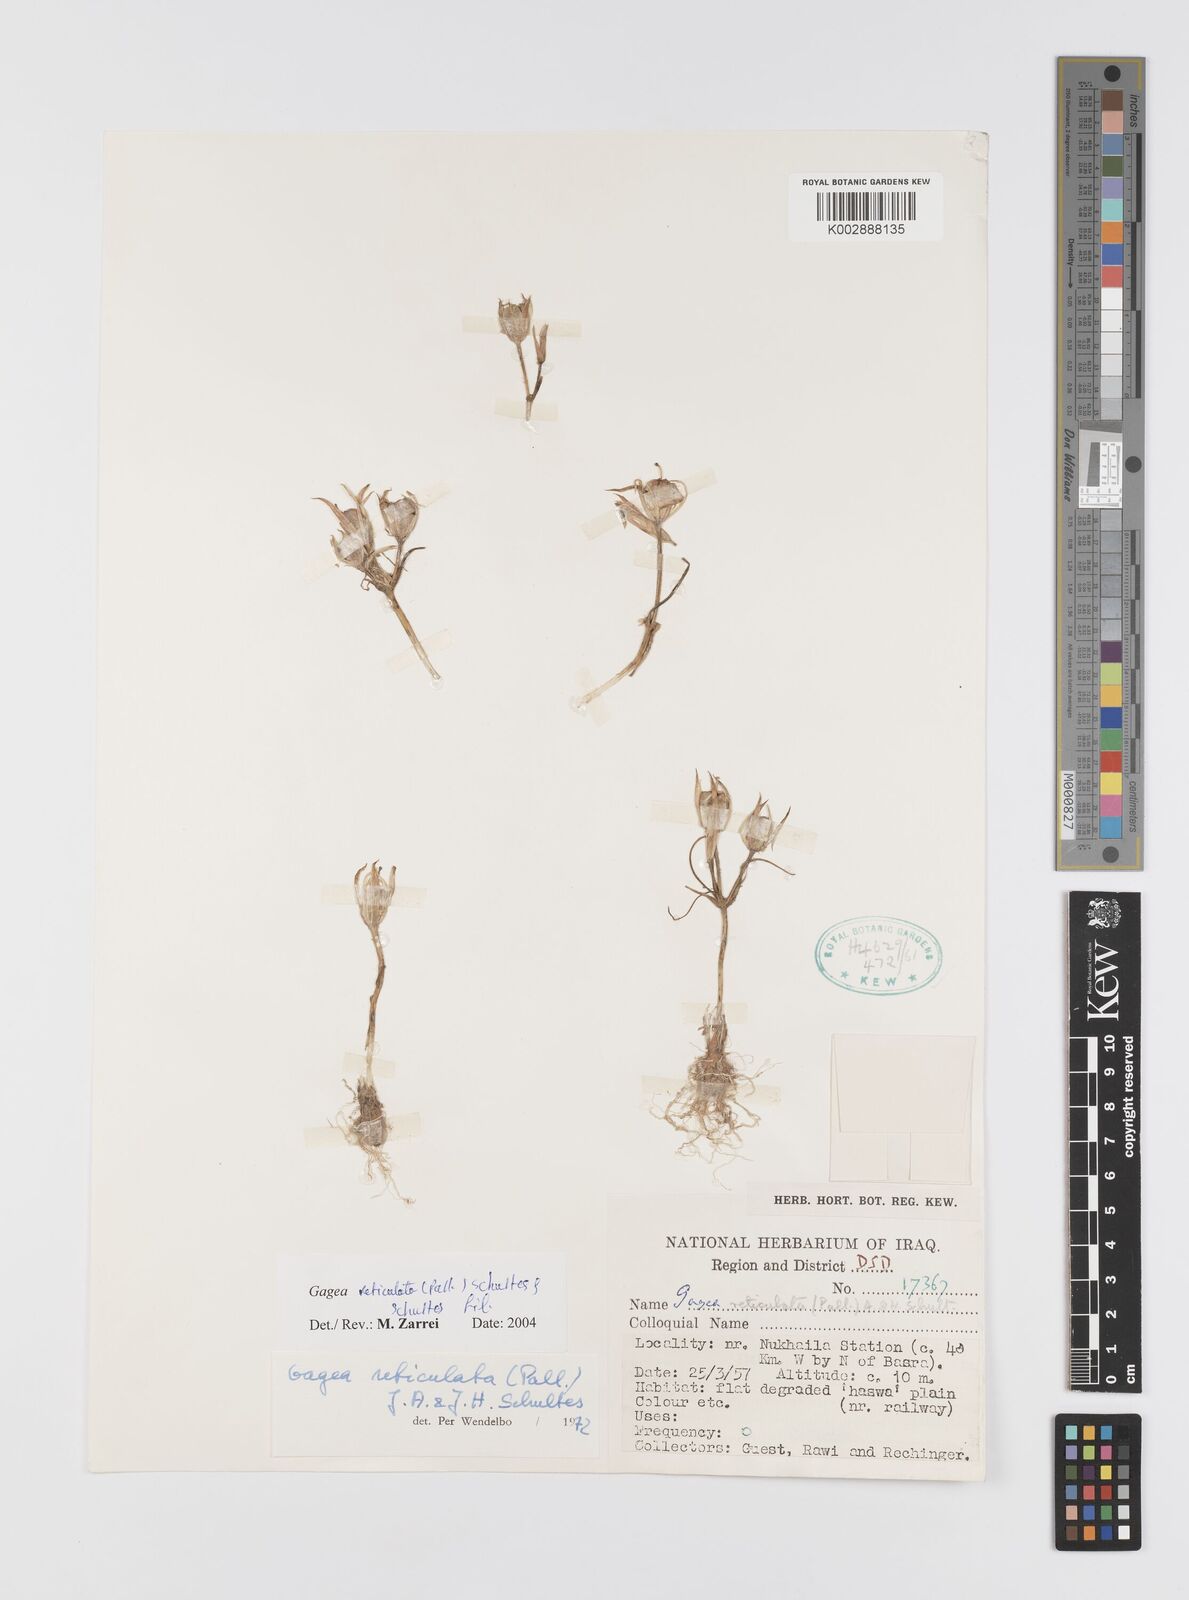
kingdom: Plantae
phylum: Tracheophyta
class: Liliopsida
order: Liliales
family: Liliaceae
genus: Gagea
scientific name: Gagea reticulata
